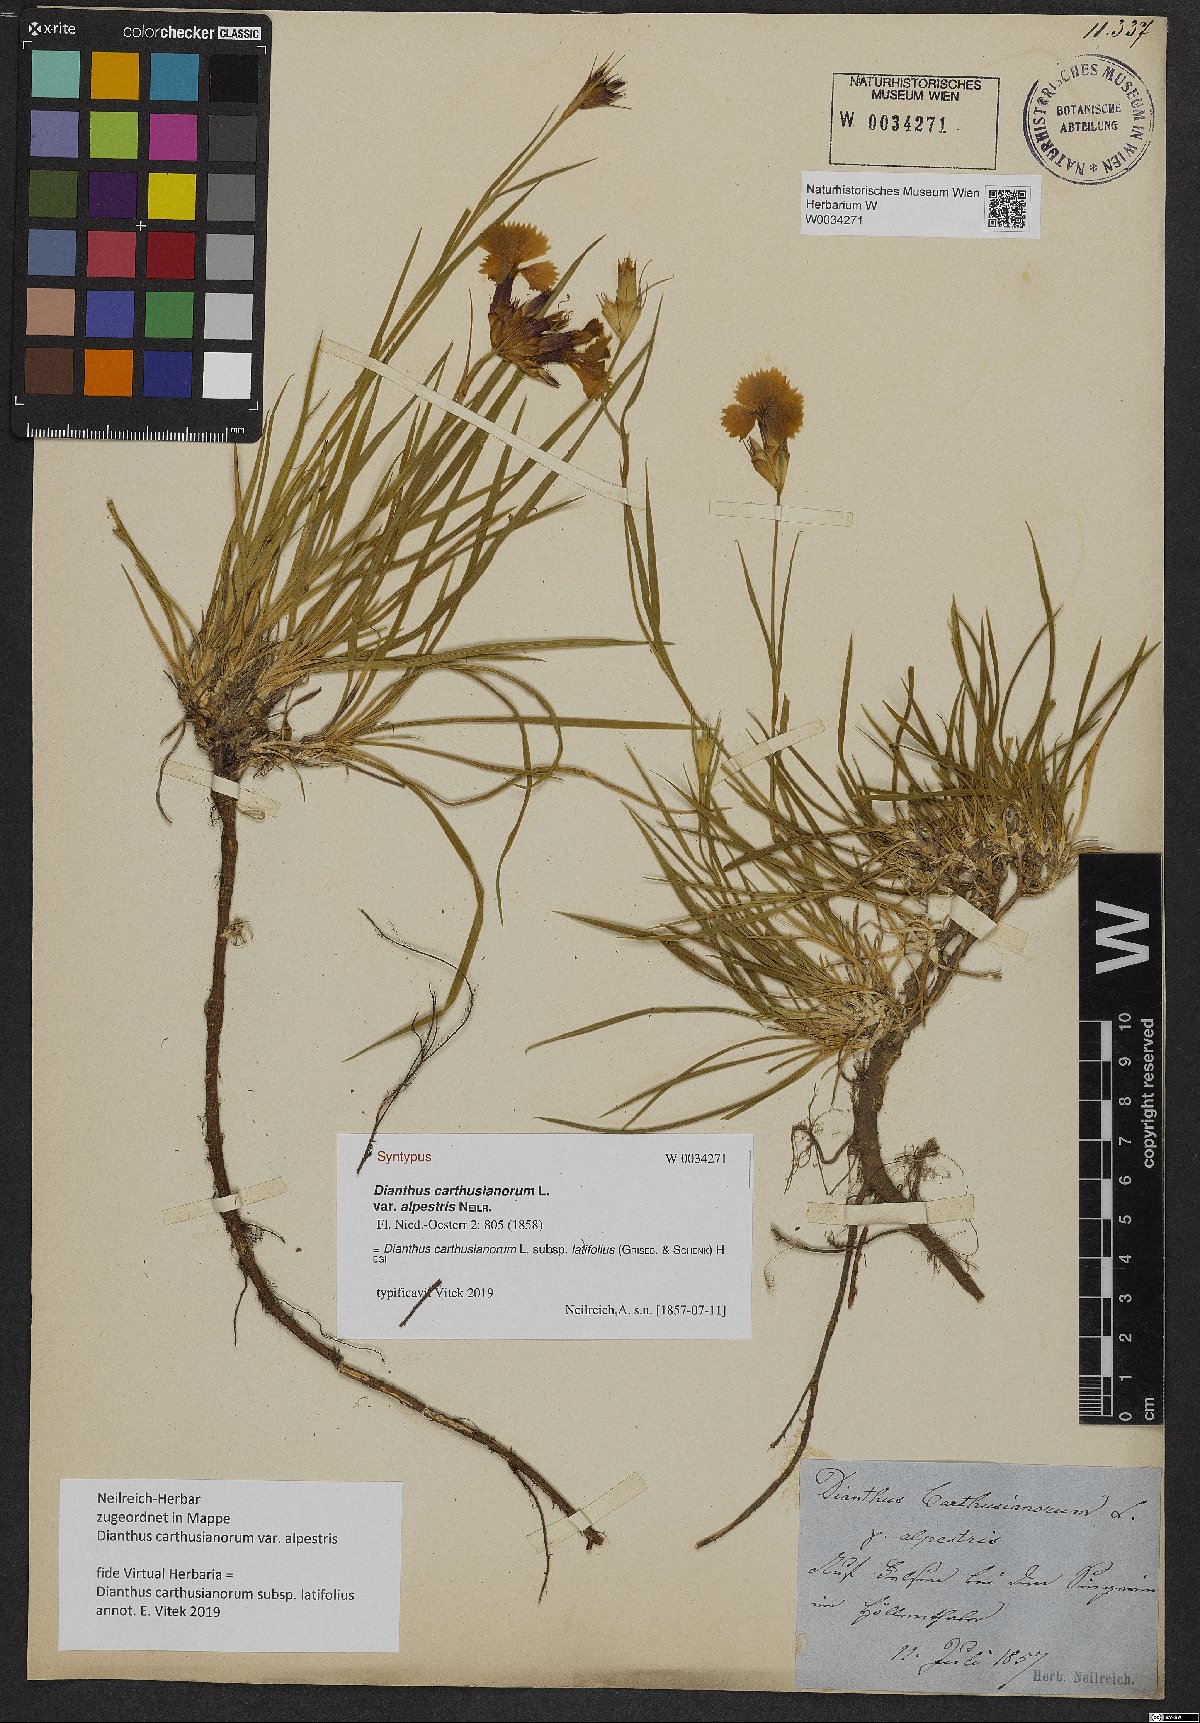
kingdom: Plantae
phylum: Tracheophyta
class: Magnoliopsida
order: Caryophyllales
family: Caryophyllaceae
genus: Dianthus
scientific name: Dianthus carthusianorum
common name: Carthusian pink
